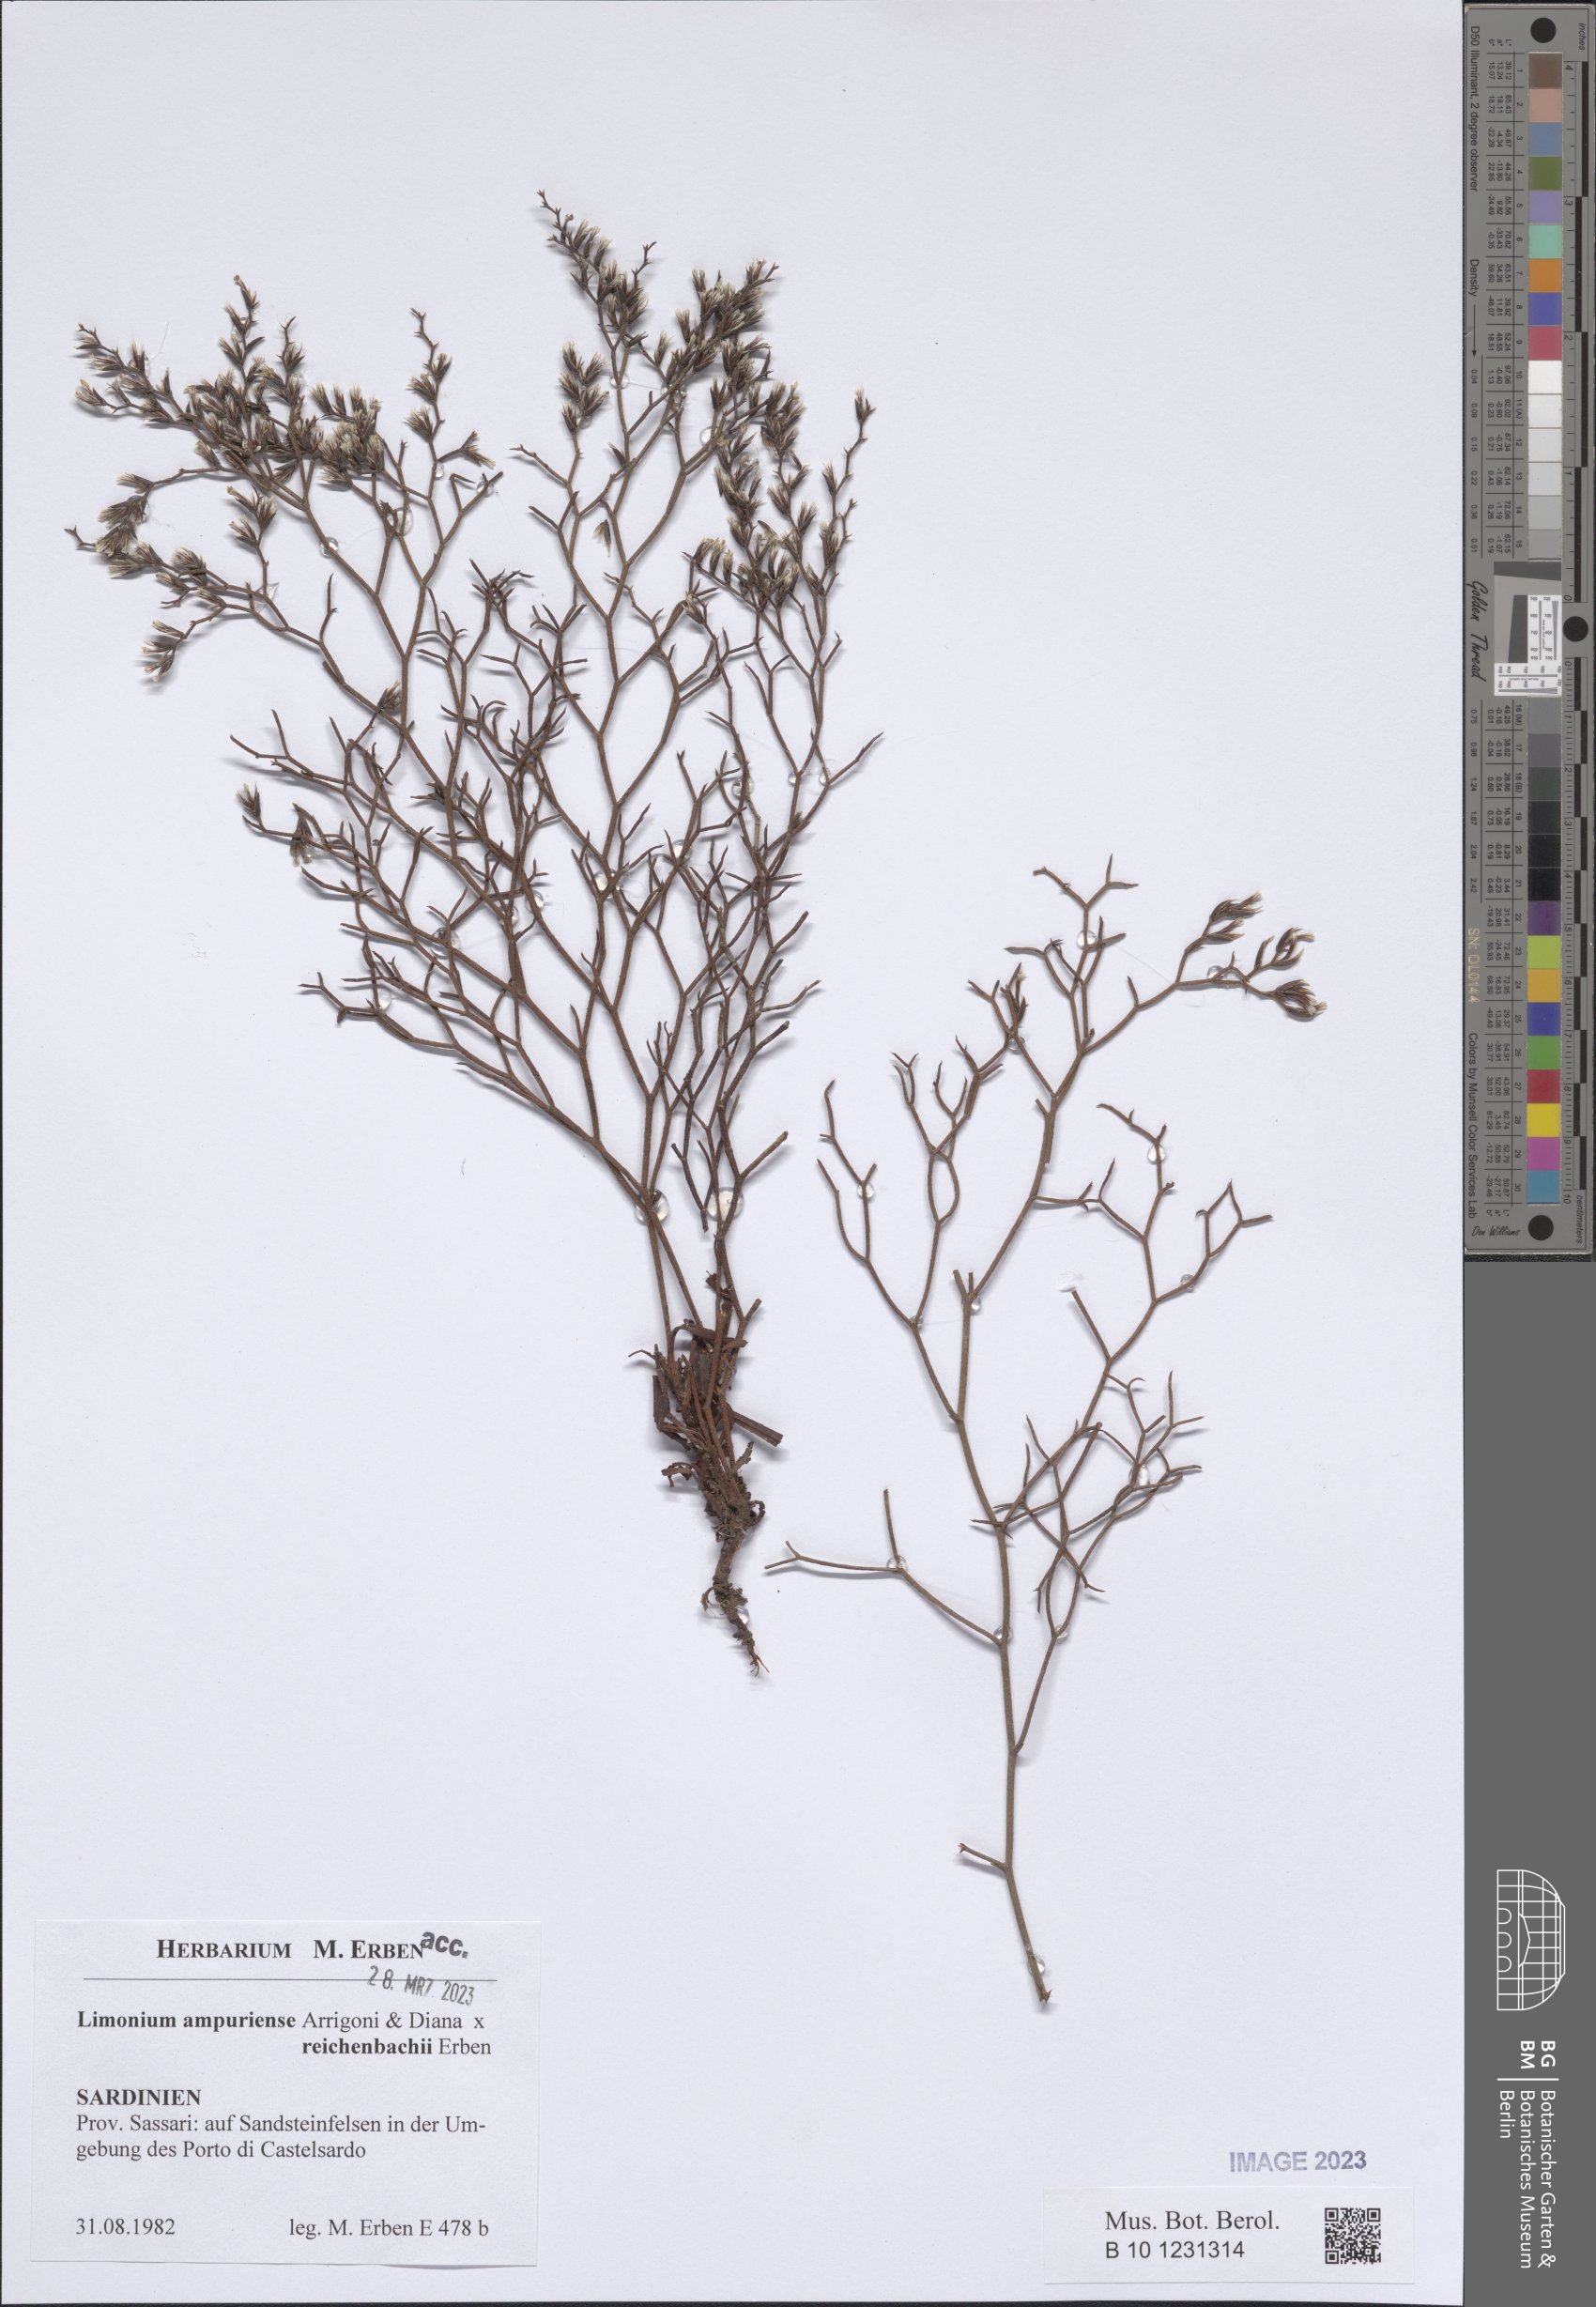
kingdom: Plantae
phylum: Tracheophyta
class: Magnoliopsida
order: Caryophyllales
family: Plumbaginaceae
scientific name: Plumbaginaceae
